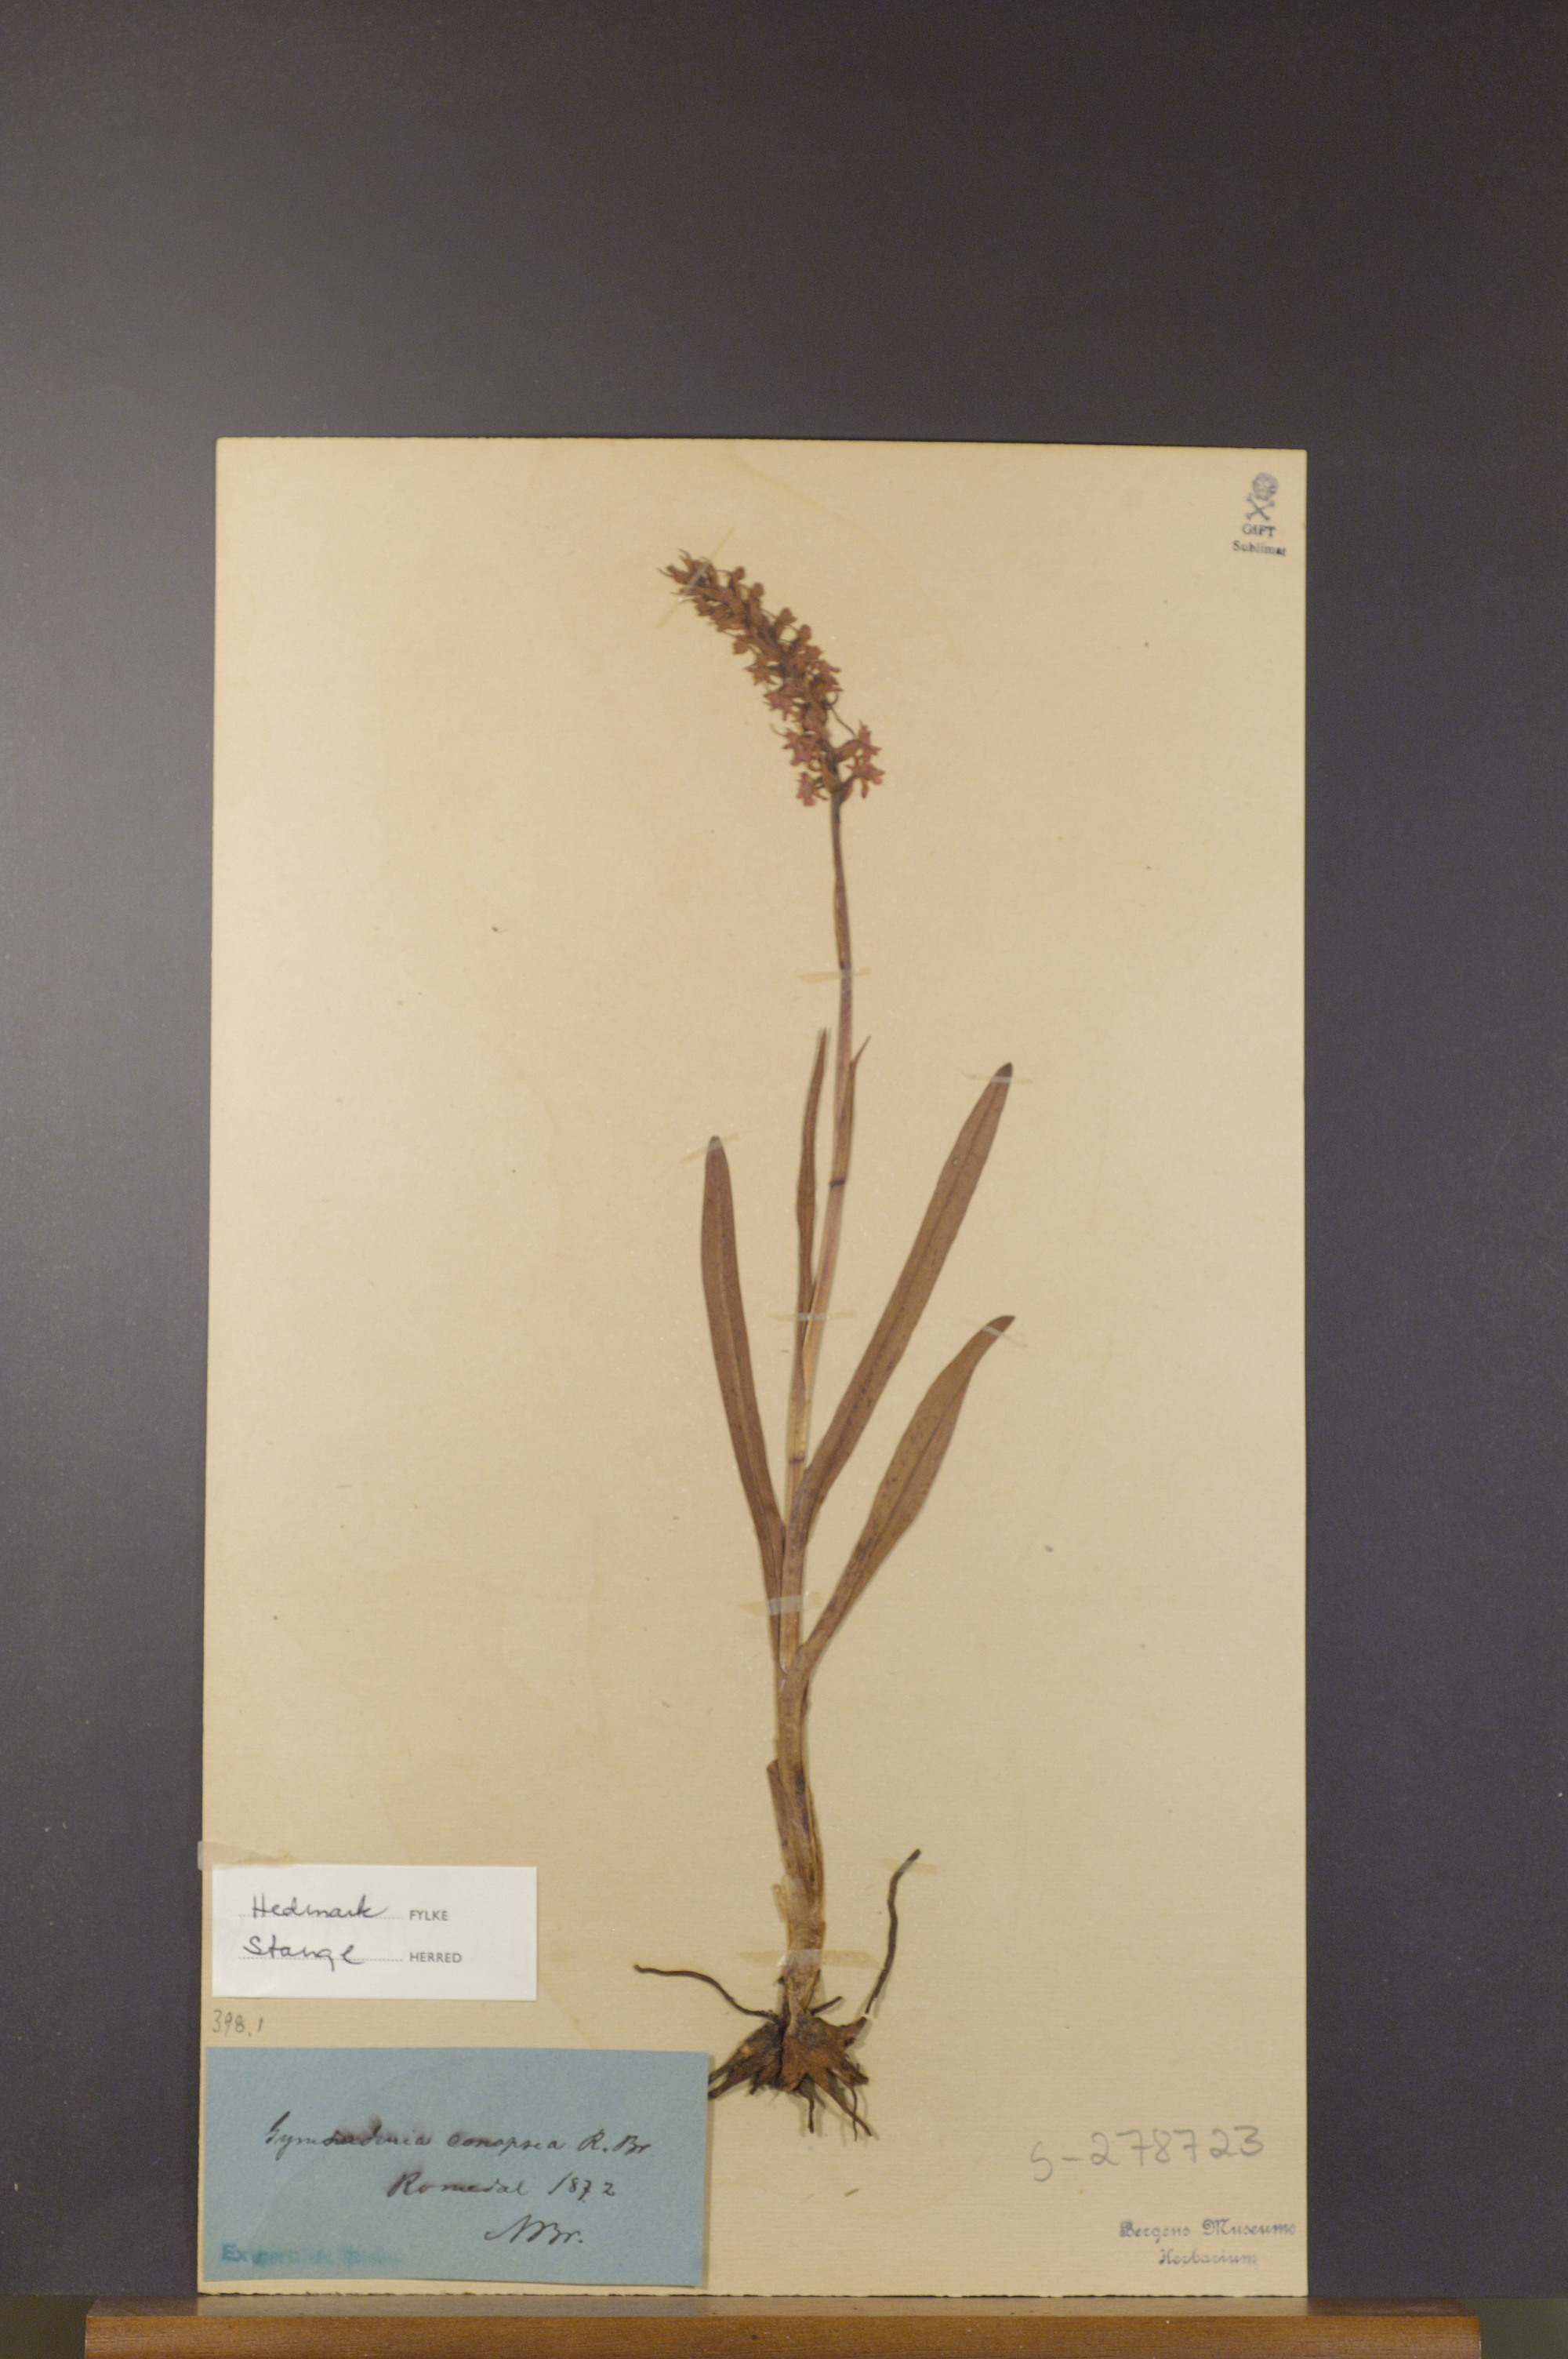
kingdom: Plantae
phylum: Tracheophyta
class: Liliopsida
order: Asparagales
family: Orchidaceae
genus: Gymnadenia
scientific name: Gymnadenia conopsea
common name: Fragrant orchid
